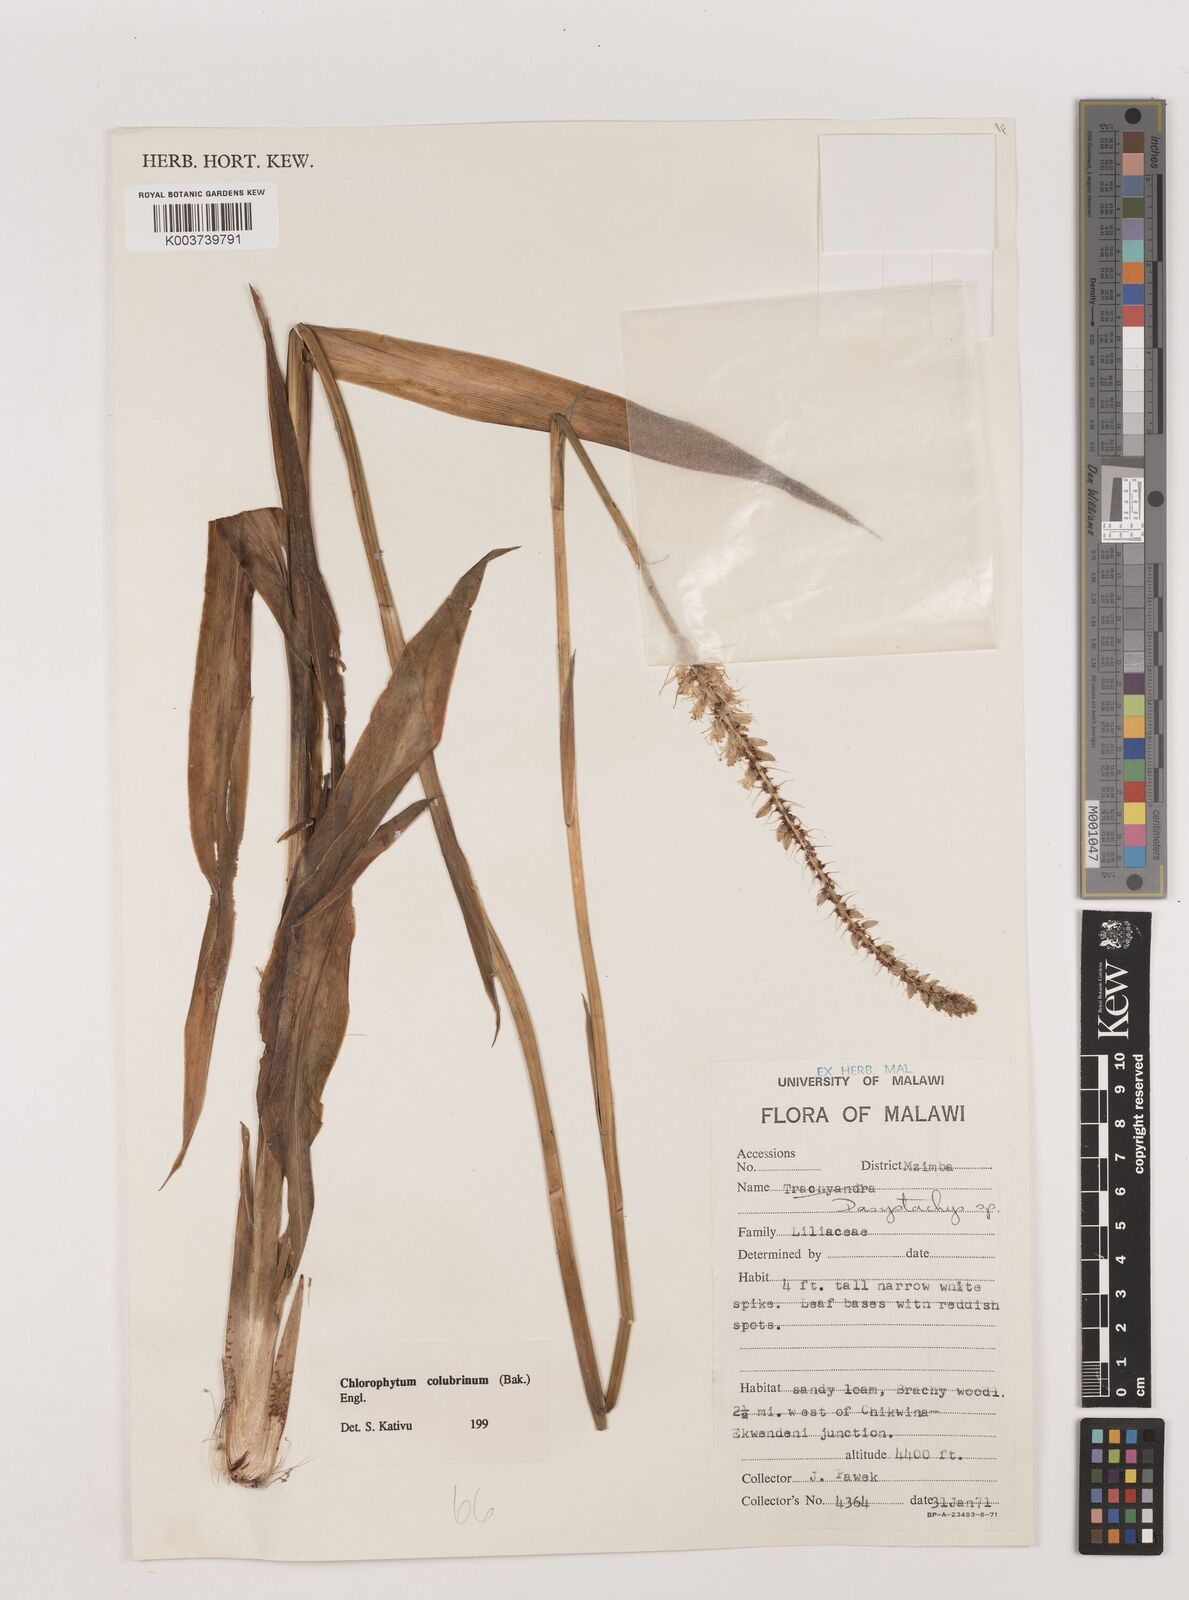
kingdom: Plantae
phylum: Tracheophyta
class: Liliopsida
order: Asparagales
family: Asparagaceae
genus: Chlorophytum
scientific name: Chlorophytum colubrinum
